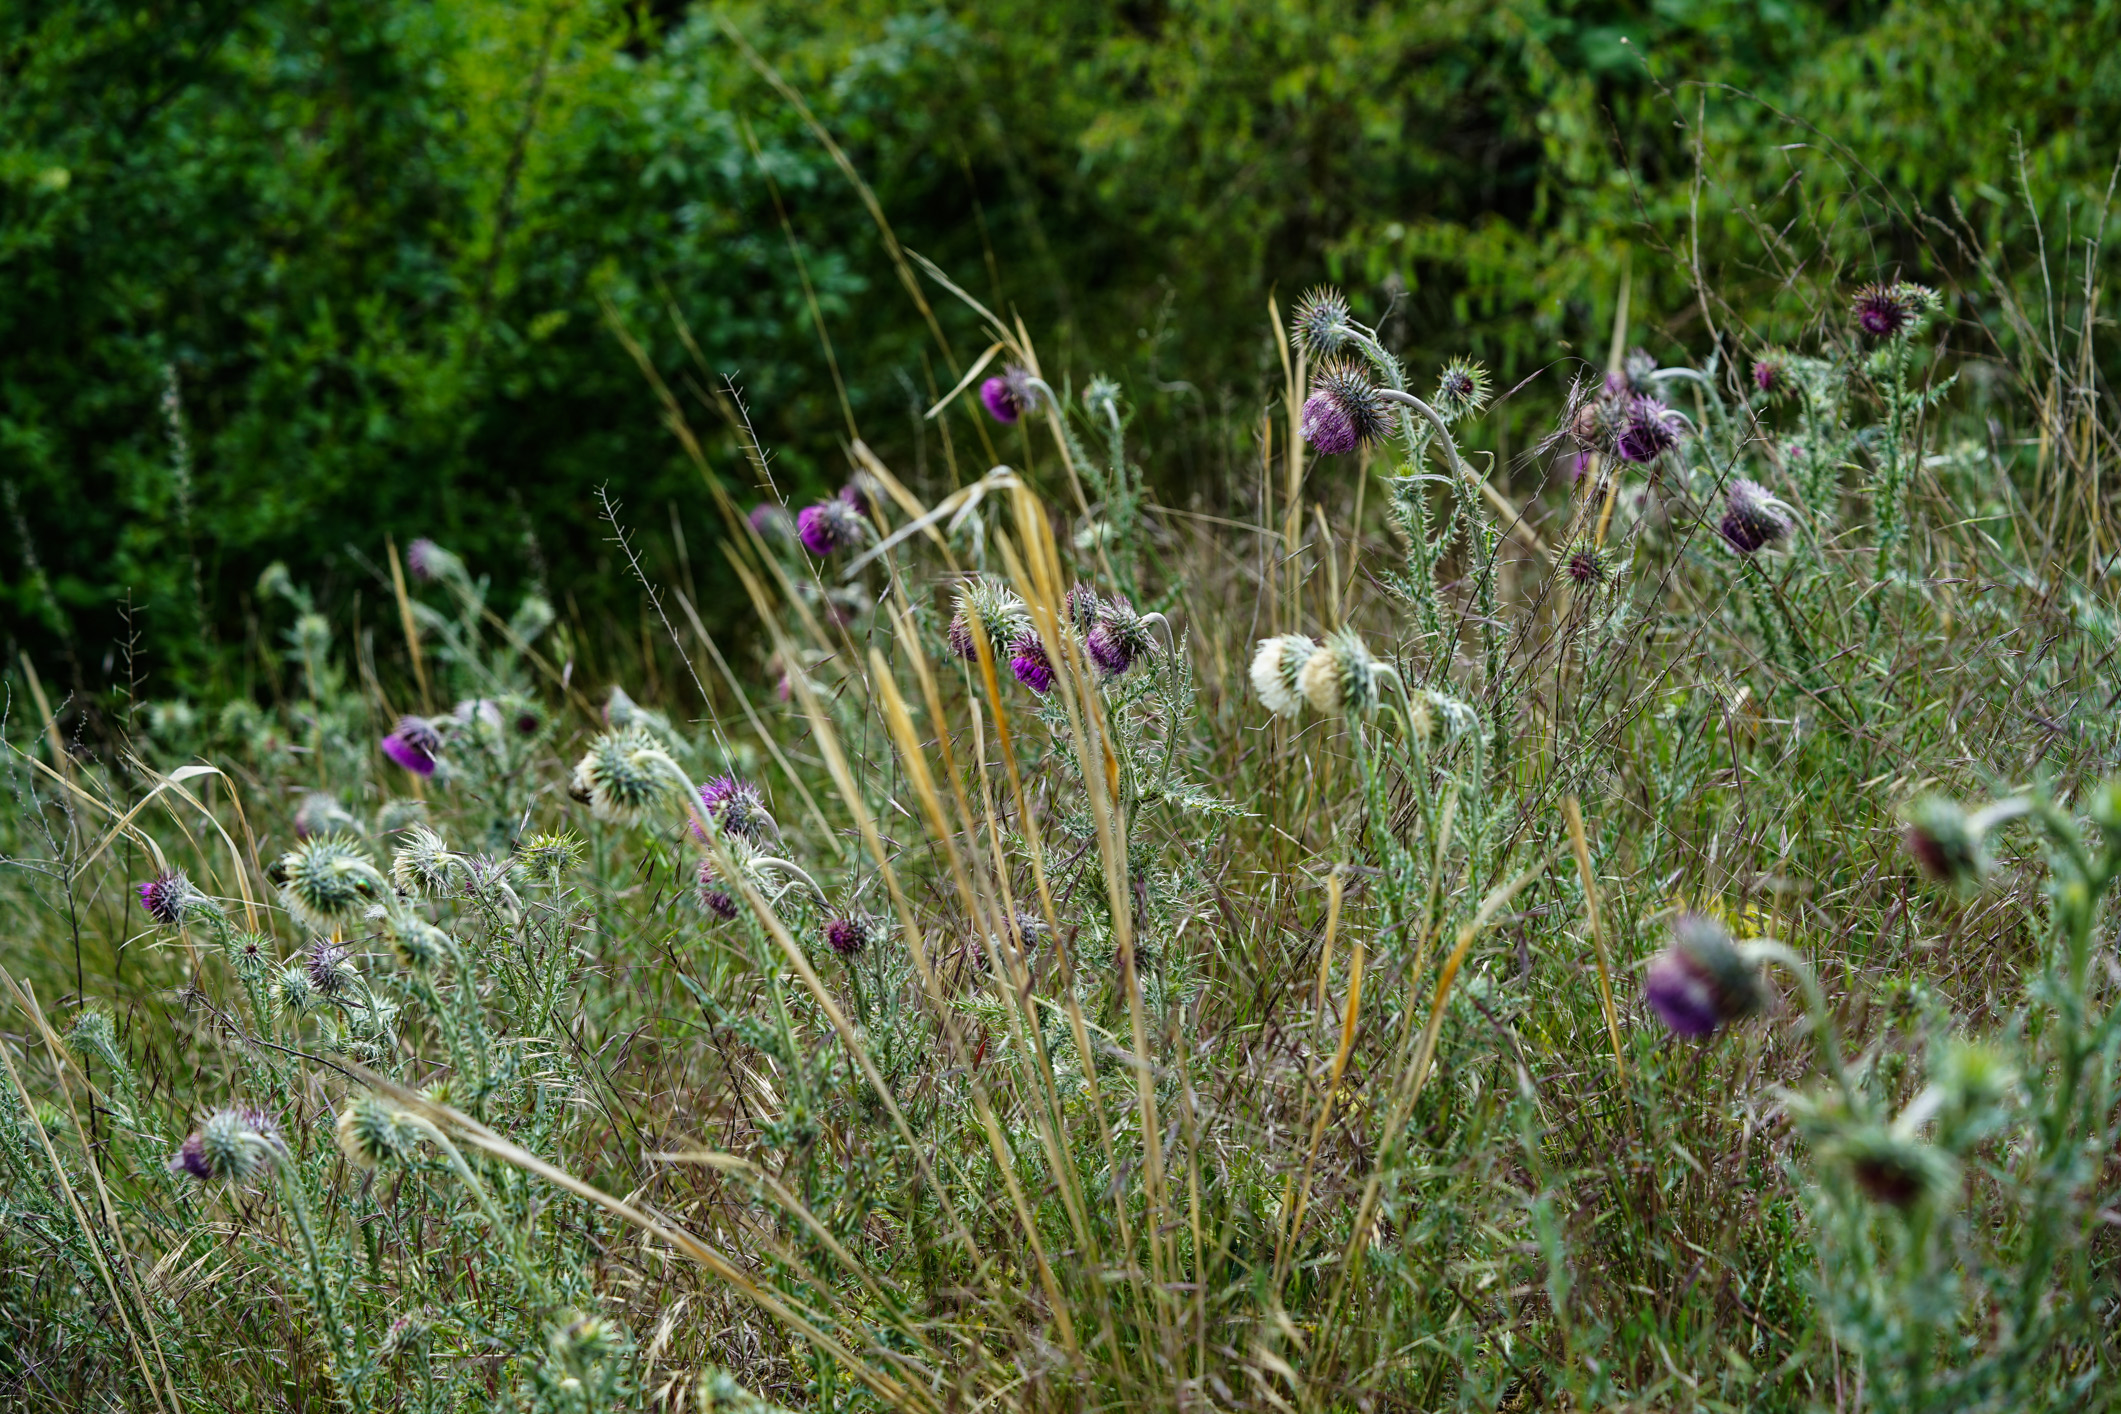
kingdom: Plantae
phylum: Tracheophyta
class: Magnoliopsida
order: Asterales
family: Asteraceae
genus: Carduus
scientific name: Carduus nutans
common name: Musk thistle
